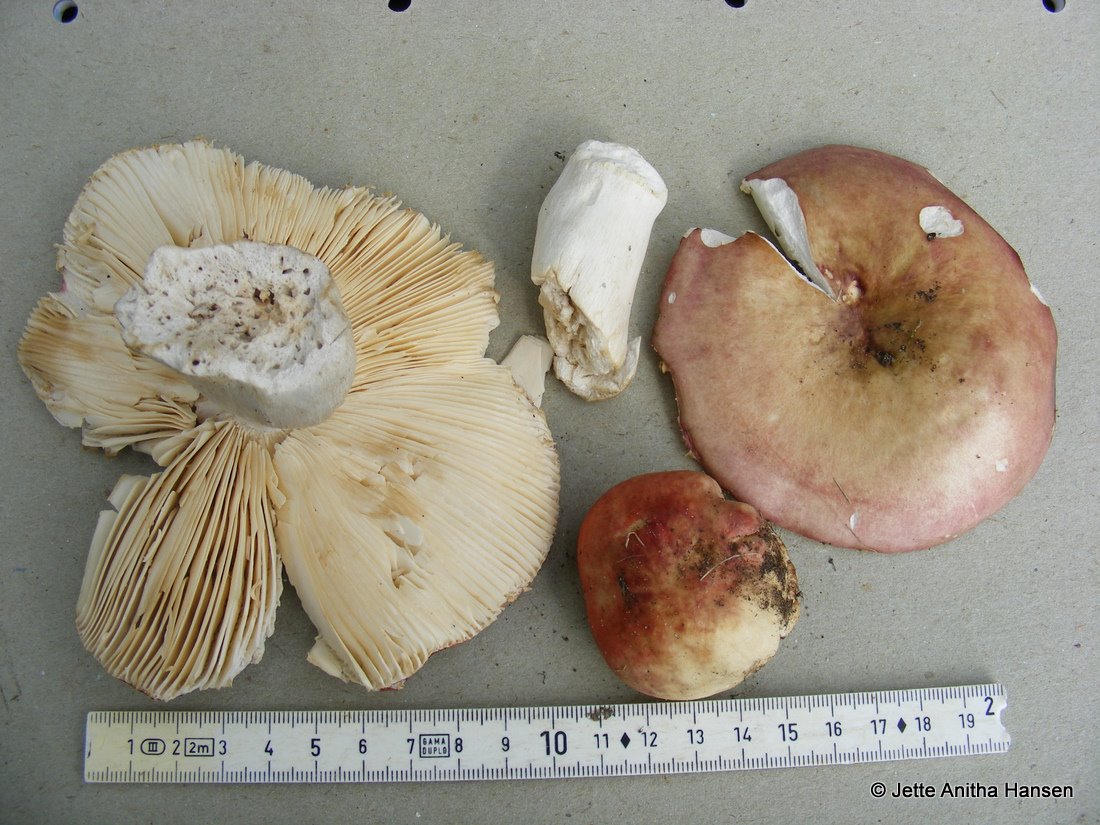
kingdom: Fungi
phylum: Basidiomycota
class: Agaricomycetes
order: Russulales
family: Russulaceae
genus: Russula
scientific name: Russula depallens
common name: falmende skørhat
